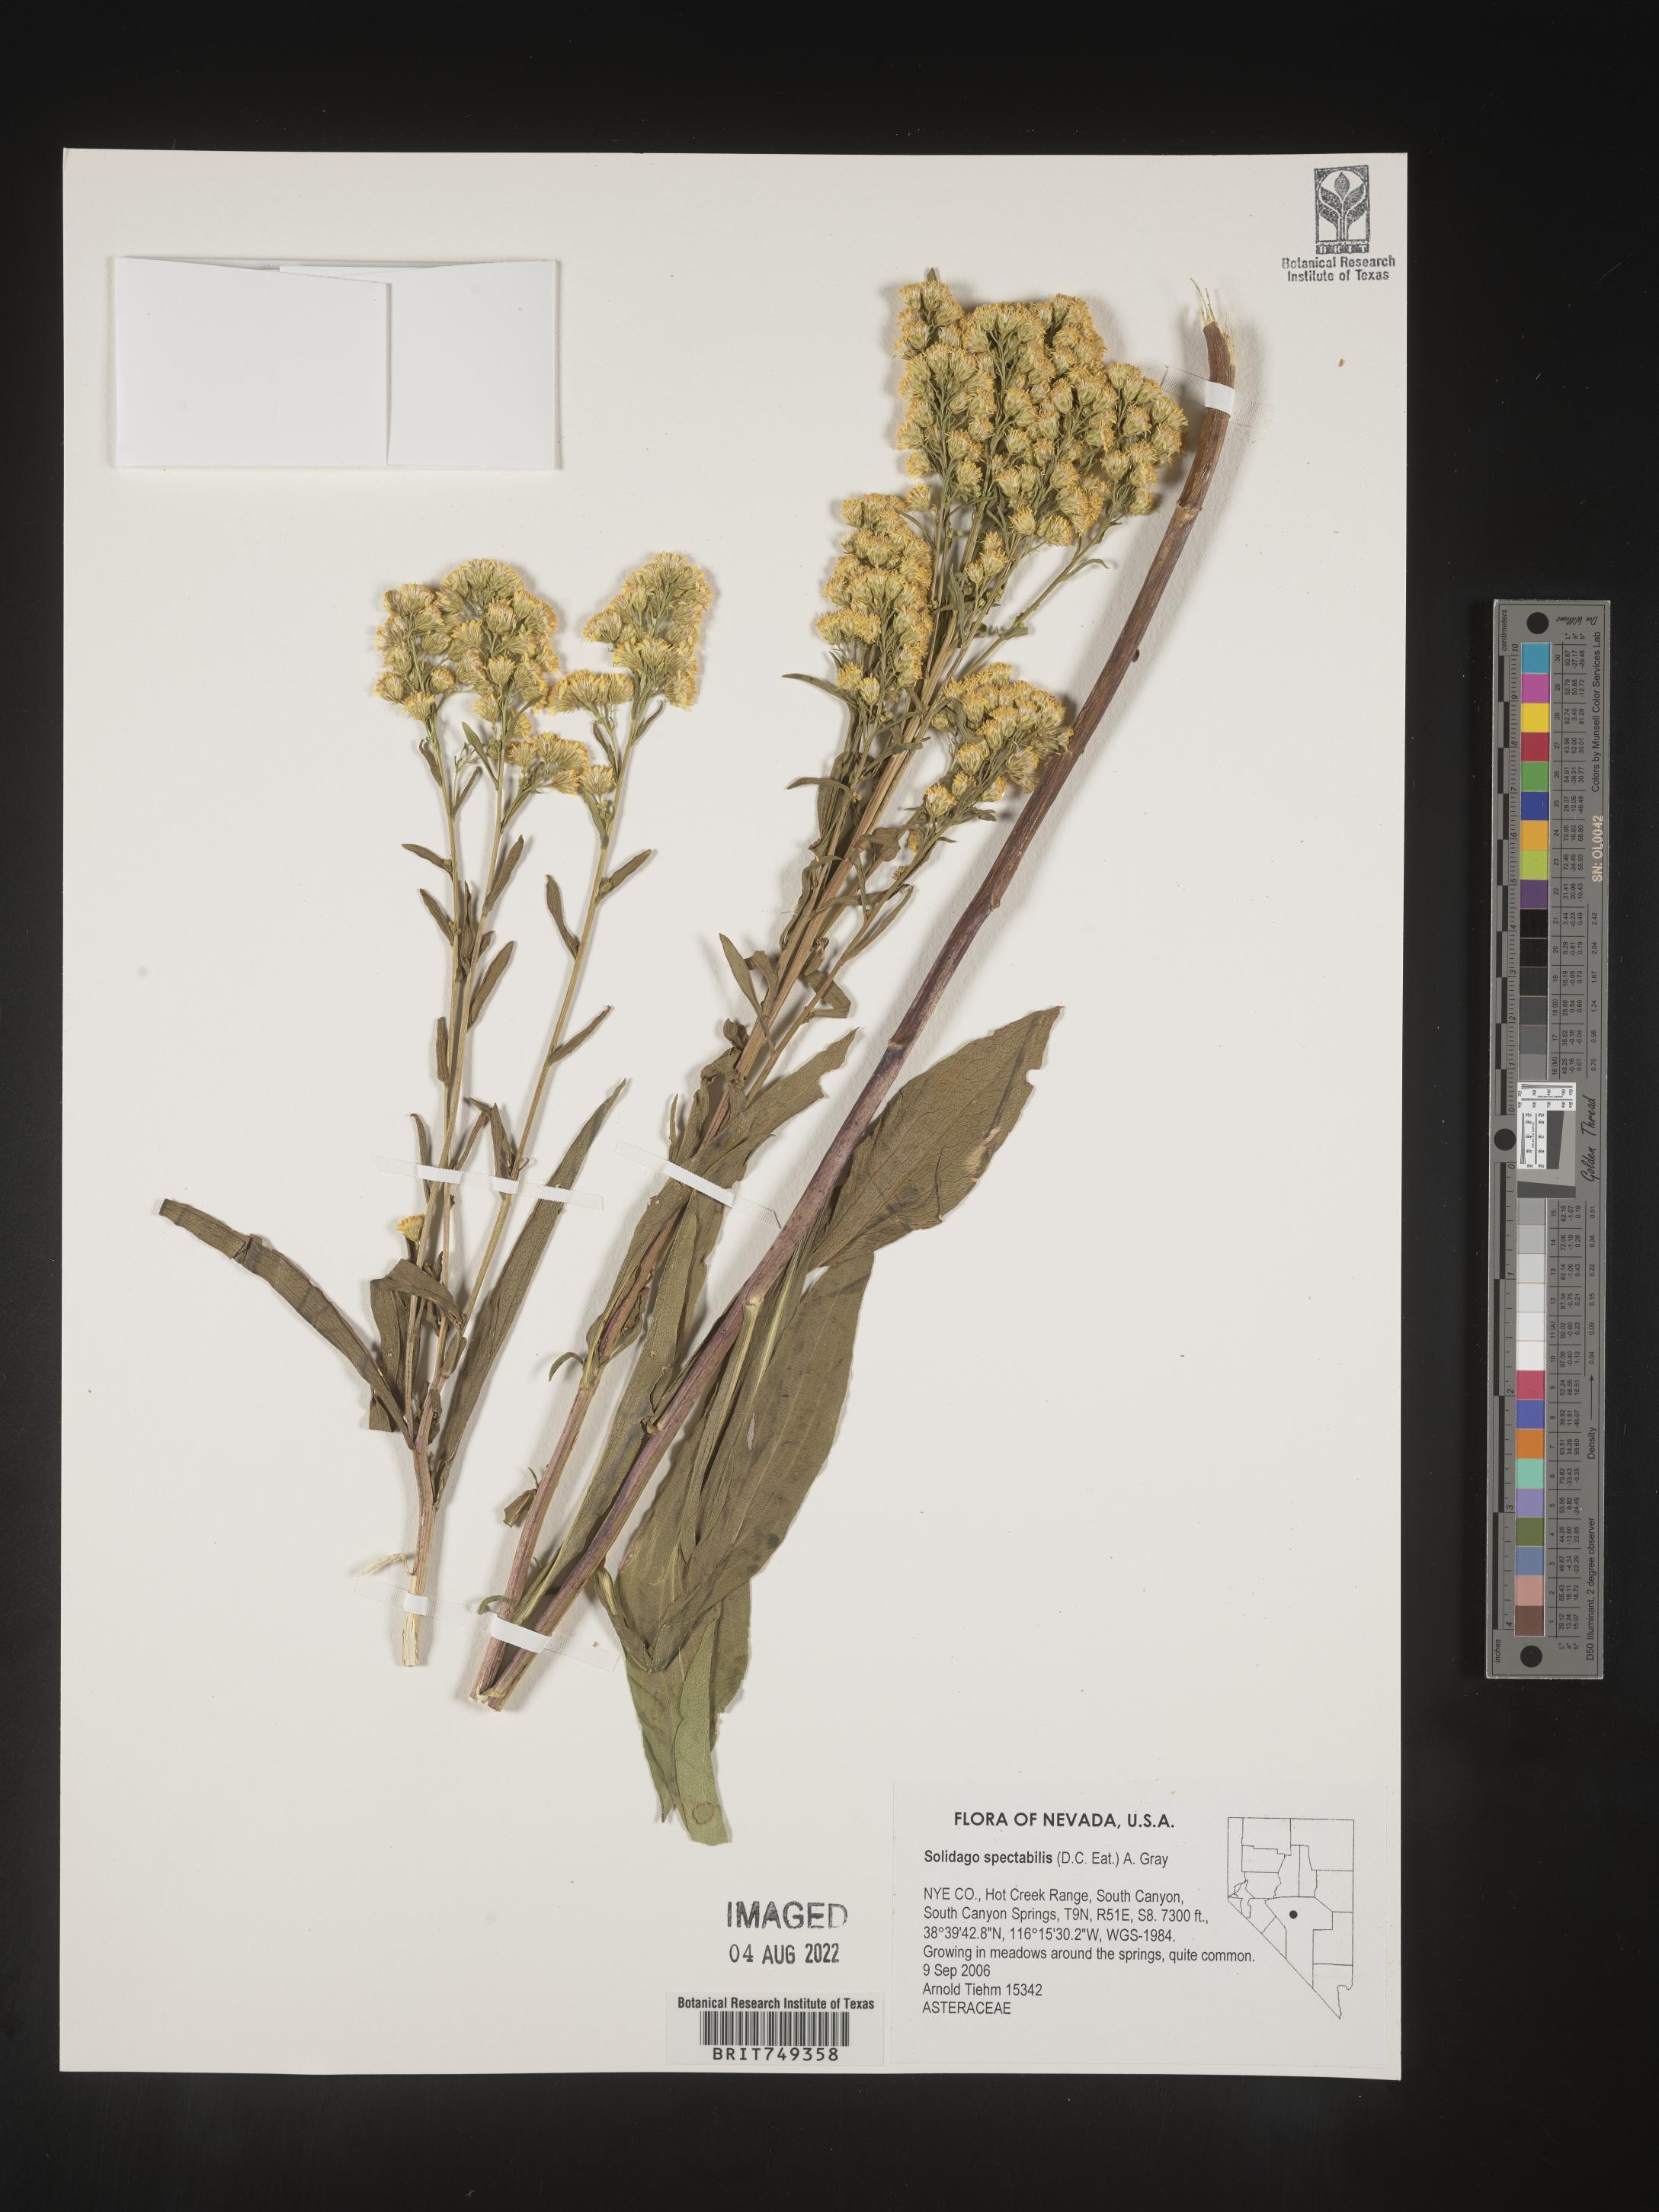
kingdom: Plantae
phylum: Tracheophyta
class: Magnoliopsida
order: Asterales
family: Asteraceae
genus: Solidago
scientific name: Solidago spectabilis
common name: Basin goldenrod
